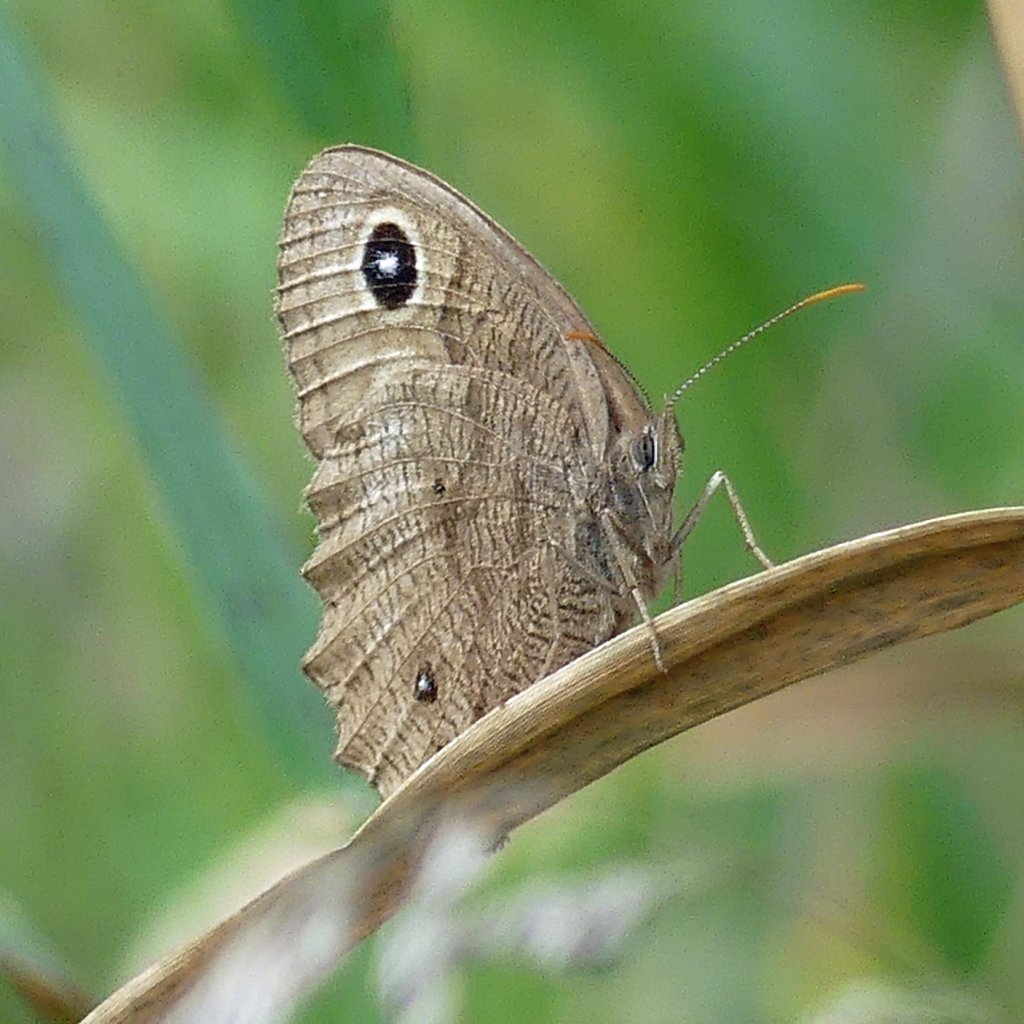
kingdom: Animalia
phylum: Arthropoda
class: Insecta
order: Lepidoptera
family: Nymphalidae
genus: Cercyonis
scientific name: Cercyonis pegala
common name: Common Wood-Nymph
